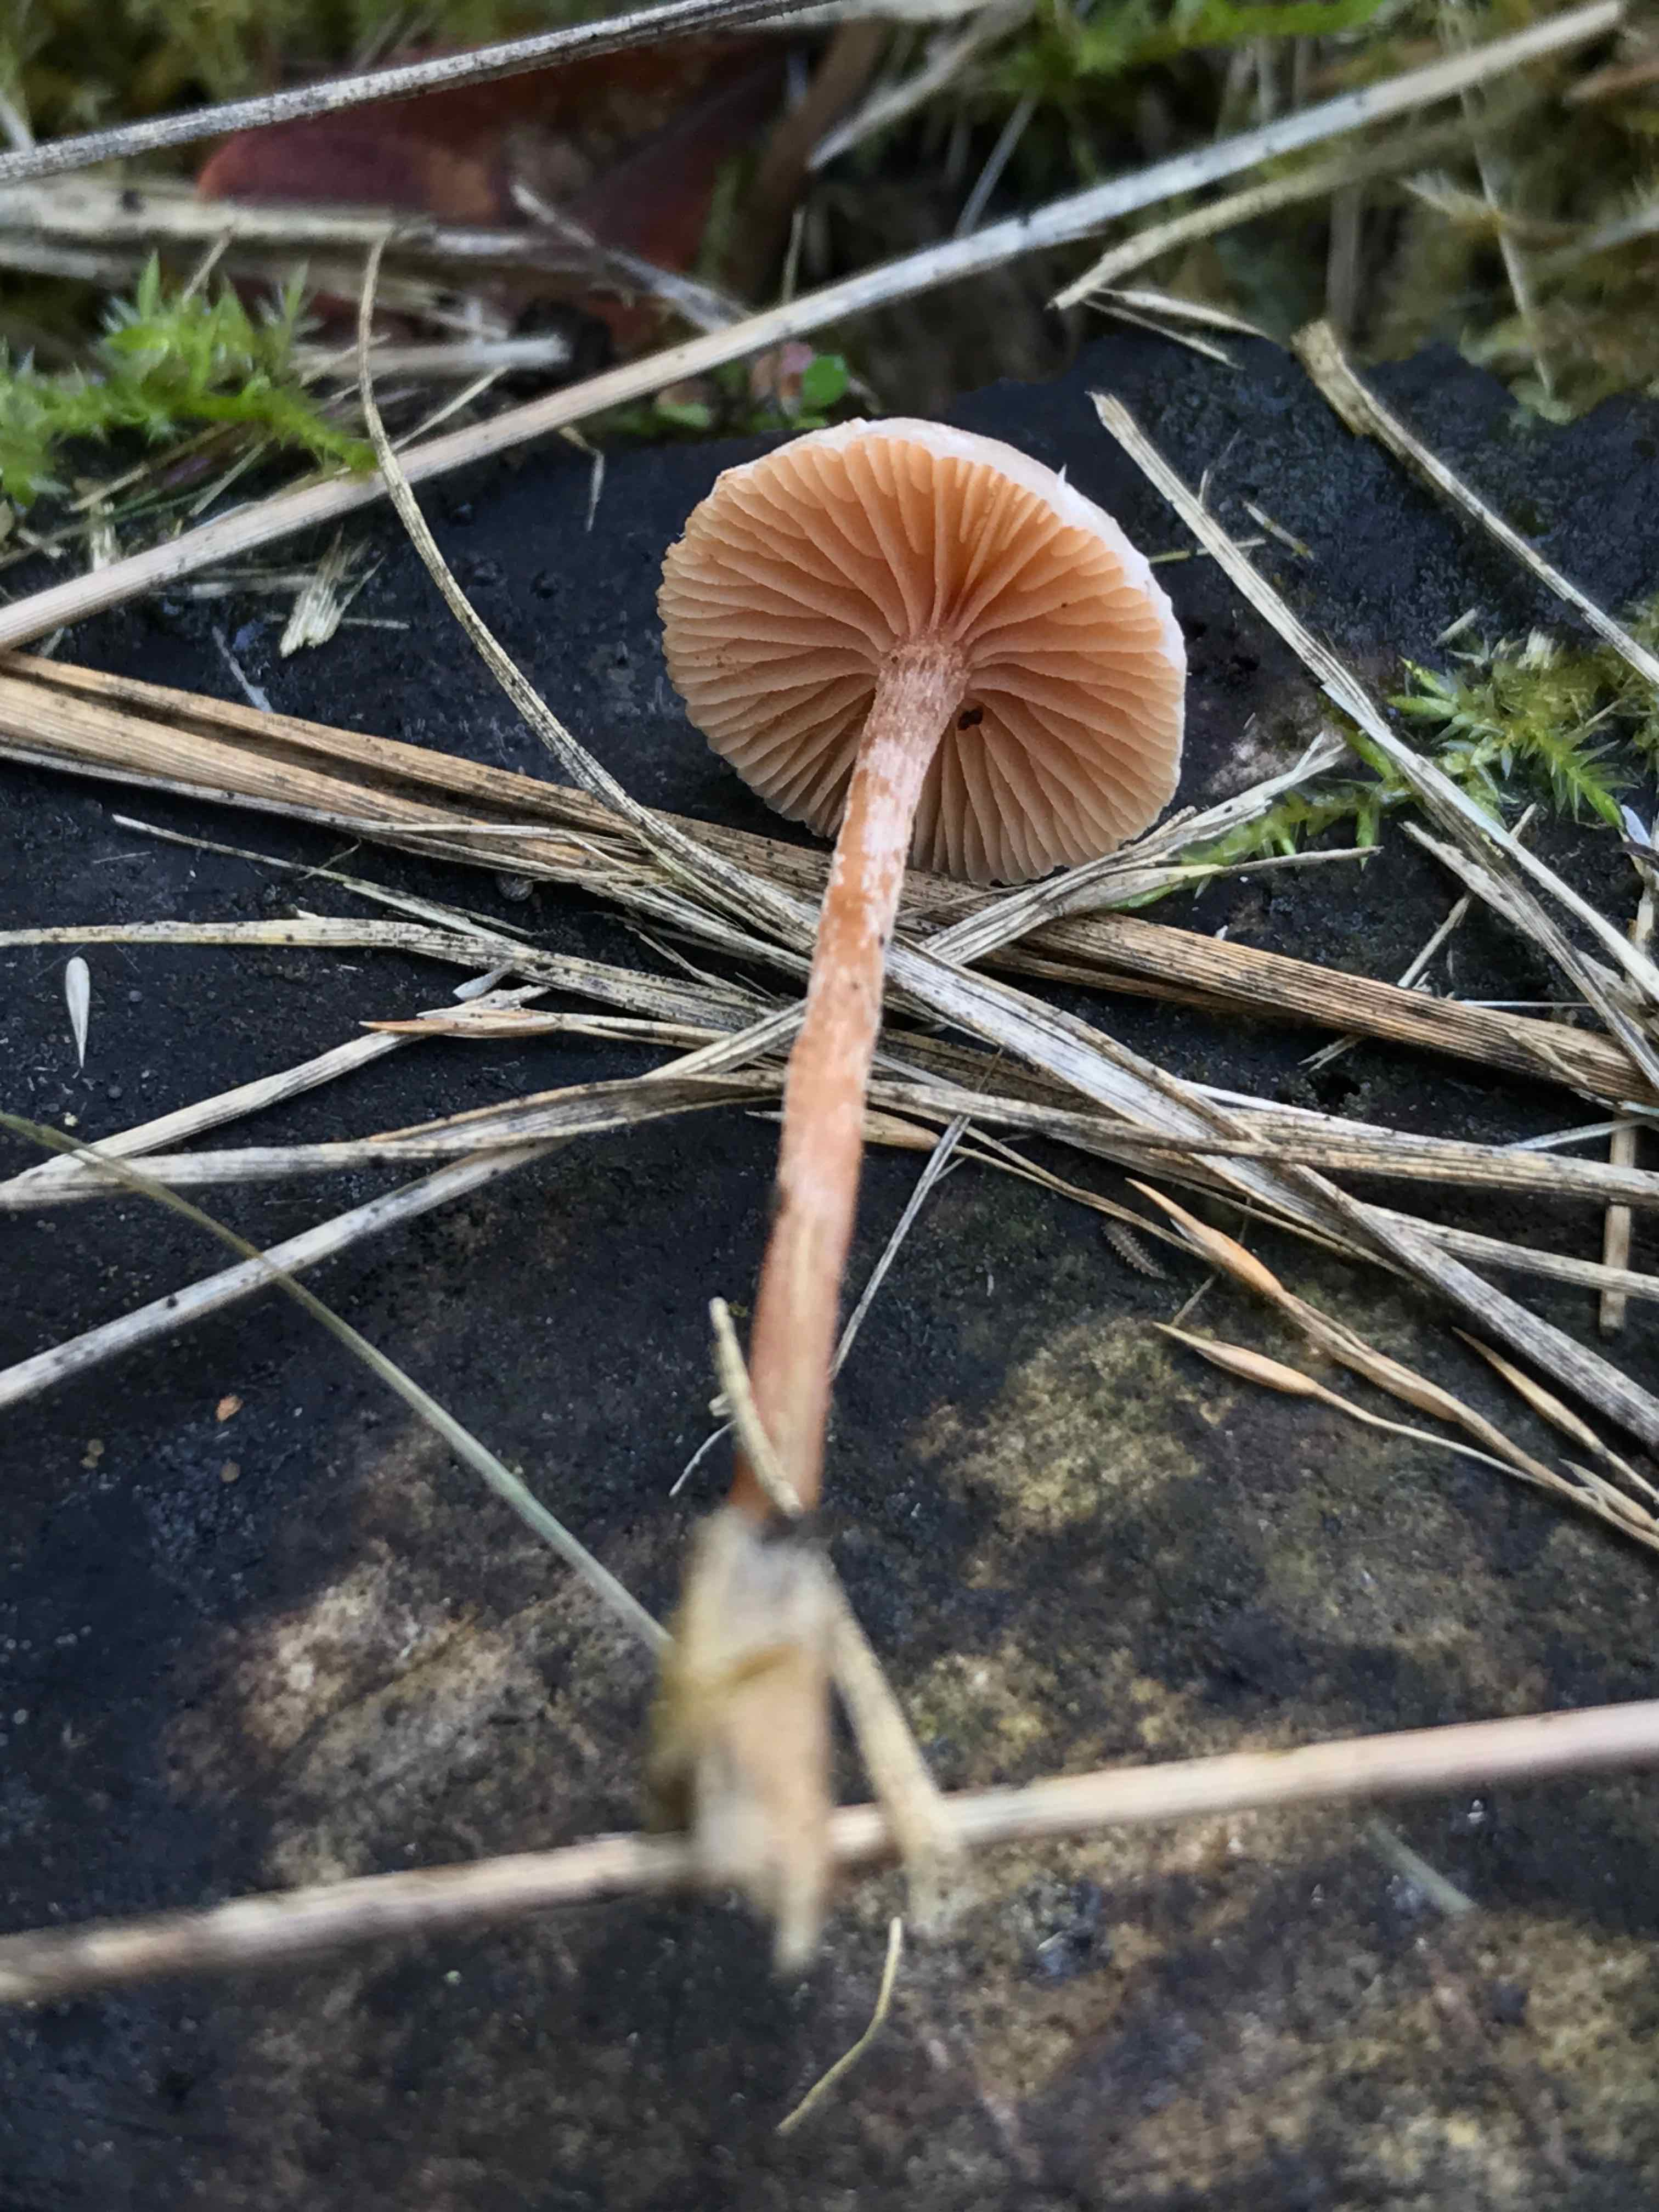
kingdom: Fungi
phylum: Basidiomycota
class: Agaricomycetes
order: Agaricales
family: Tubariaceae
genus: Tubaria
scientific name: Tubaria furfuracea
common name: kliddet fnughat
